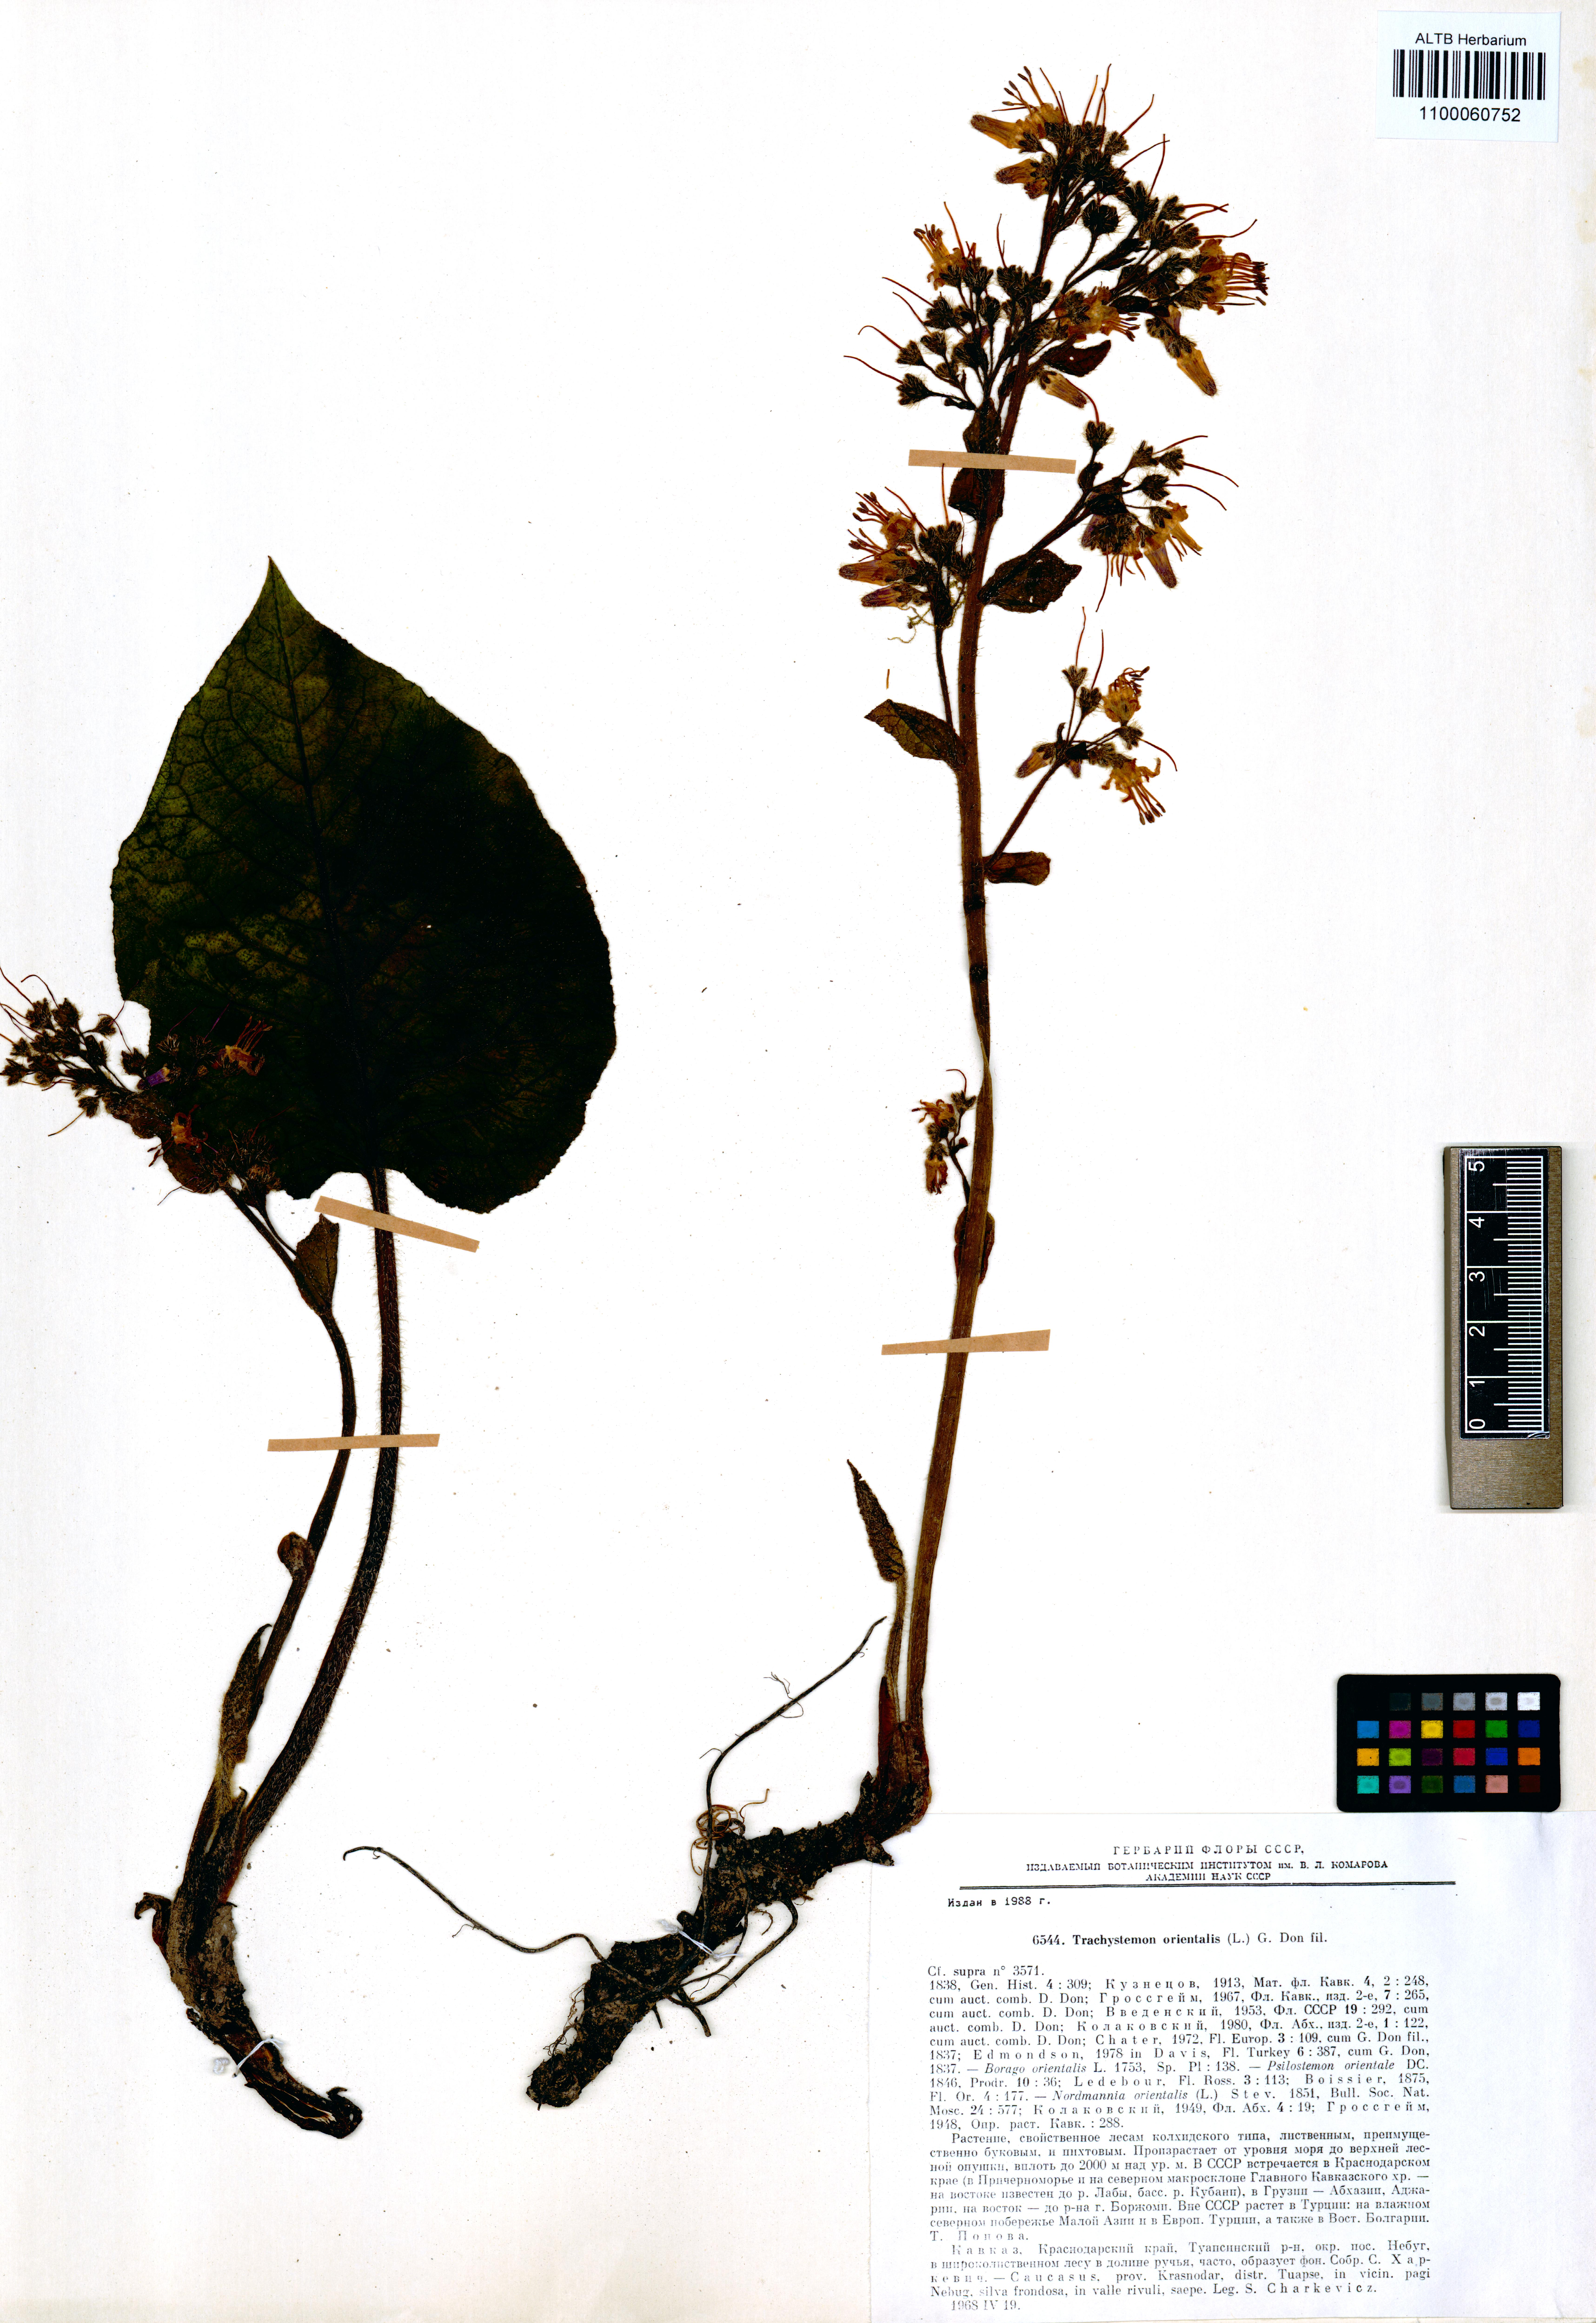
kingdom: Plantae
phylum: Tracheophyta
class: Magnoliopsida
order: Boraginales
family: Boraginaceae
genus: Trachystemon
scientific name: Trachystemon orientale
